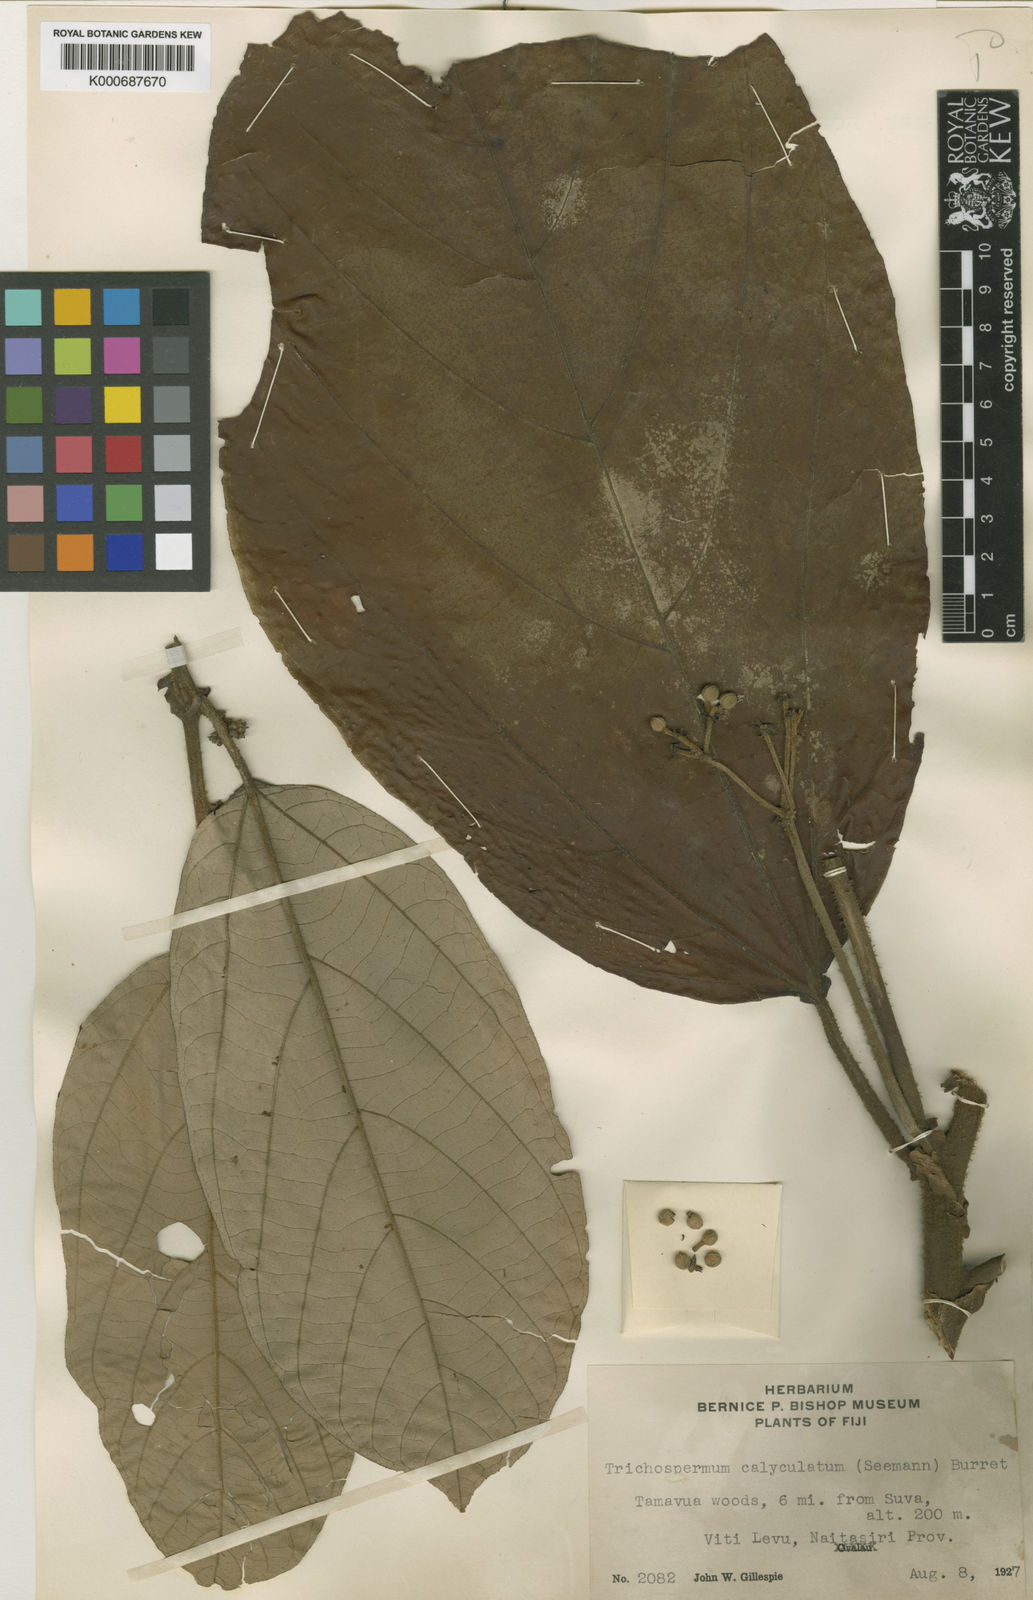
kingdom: Plantae
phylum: Tracheophyta
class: Magnoliopsida
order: Malvales
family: Malvaceae
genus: Trichospermum
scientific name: Trichospermum calyculatum
